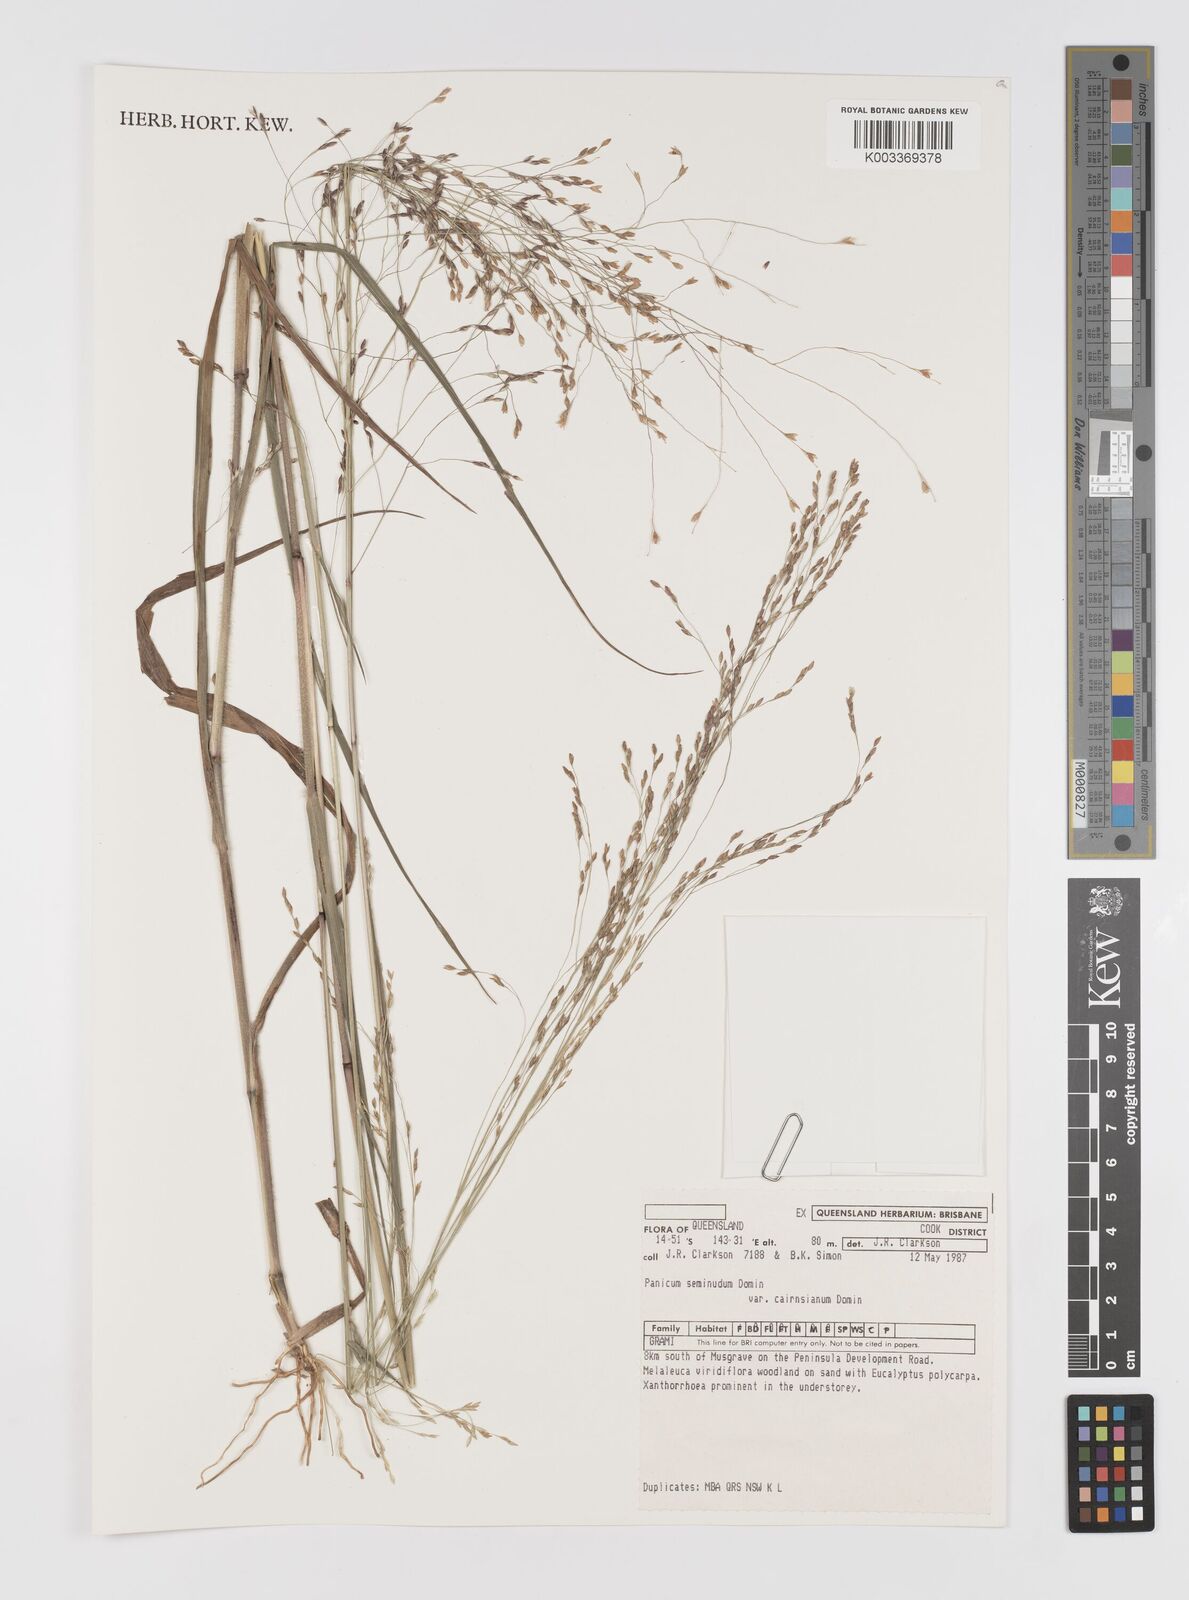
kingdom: Plantae
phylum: Tracheophyta
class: Liliopsida
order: Poales
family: Poaceae
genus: Panicum
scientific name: Panicum seminudum
